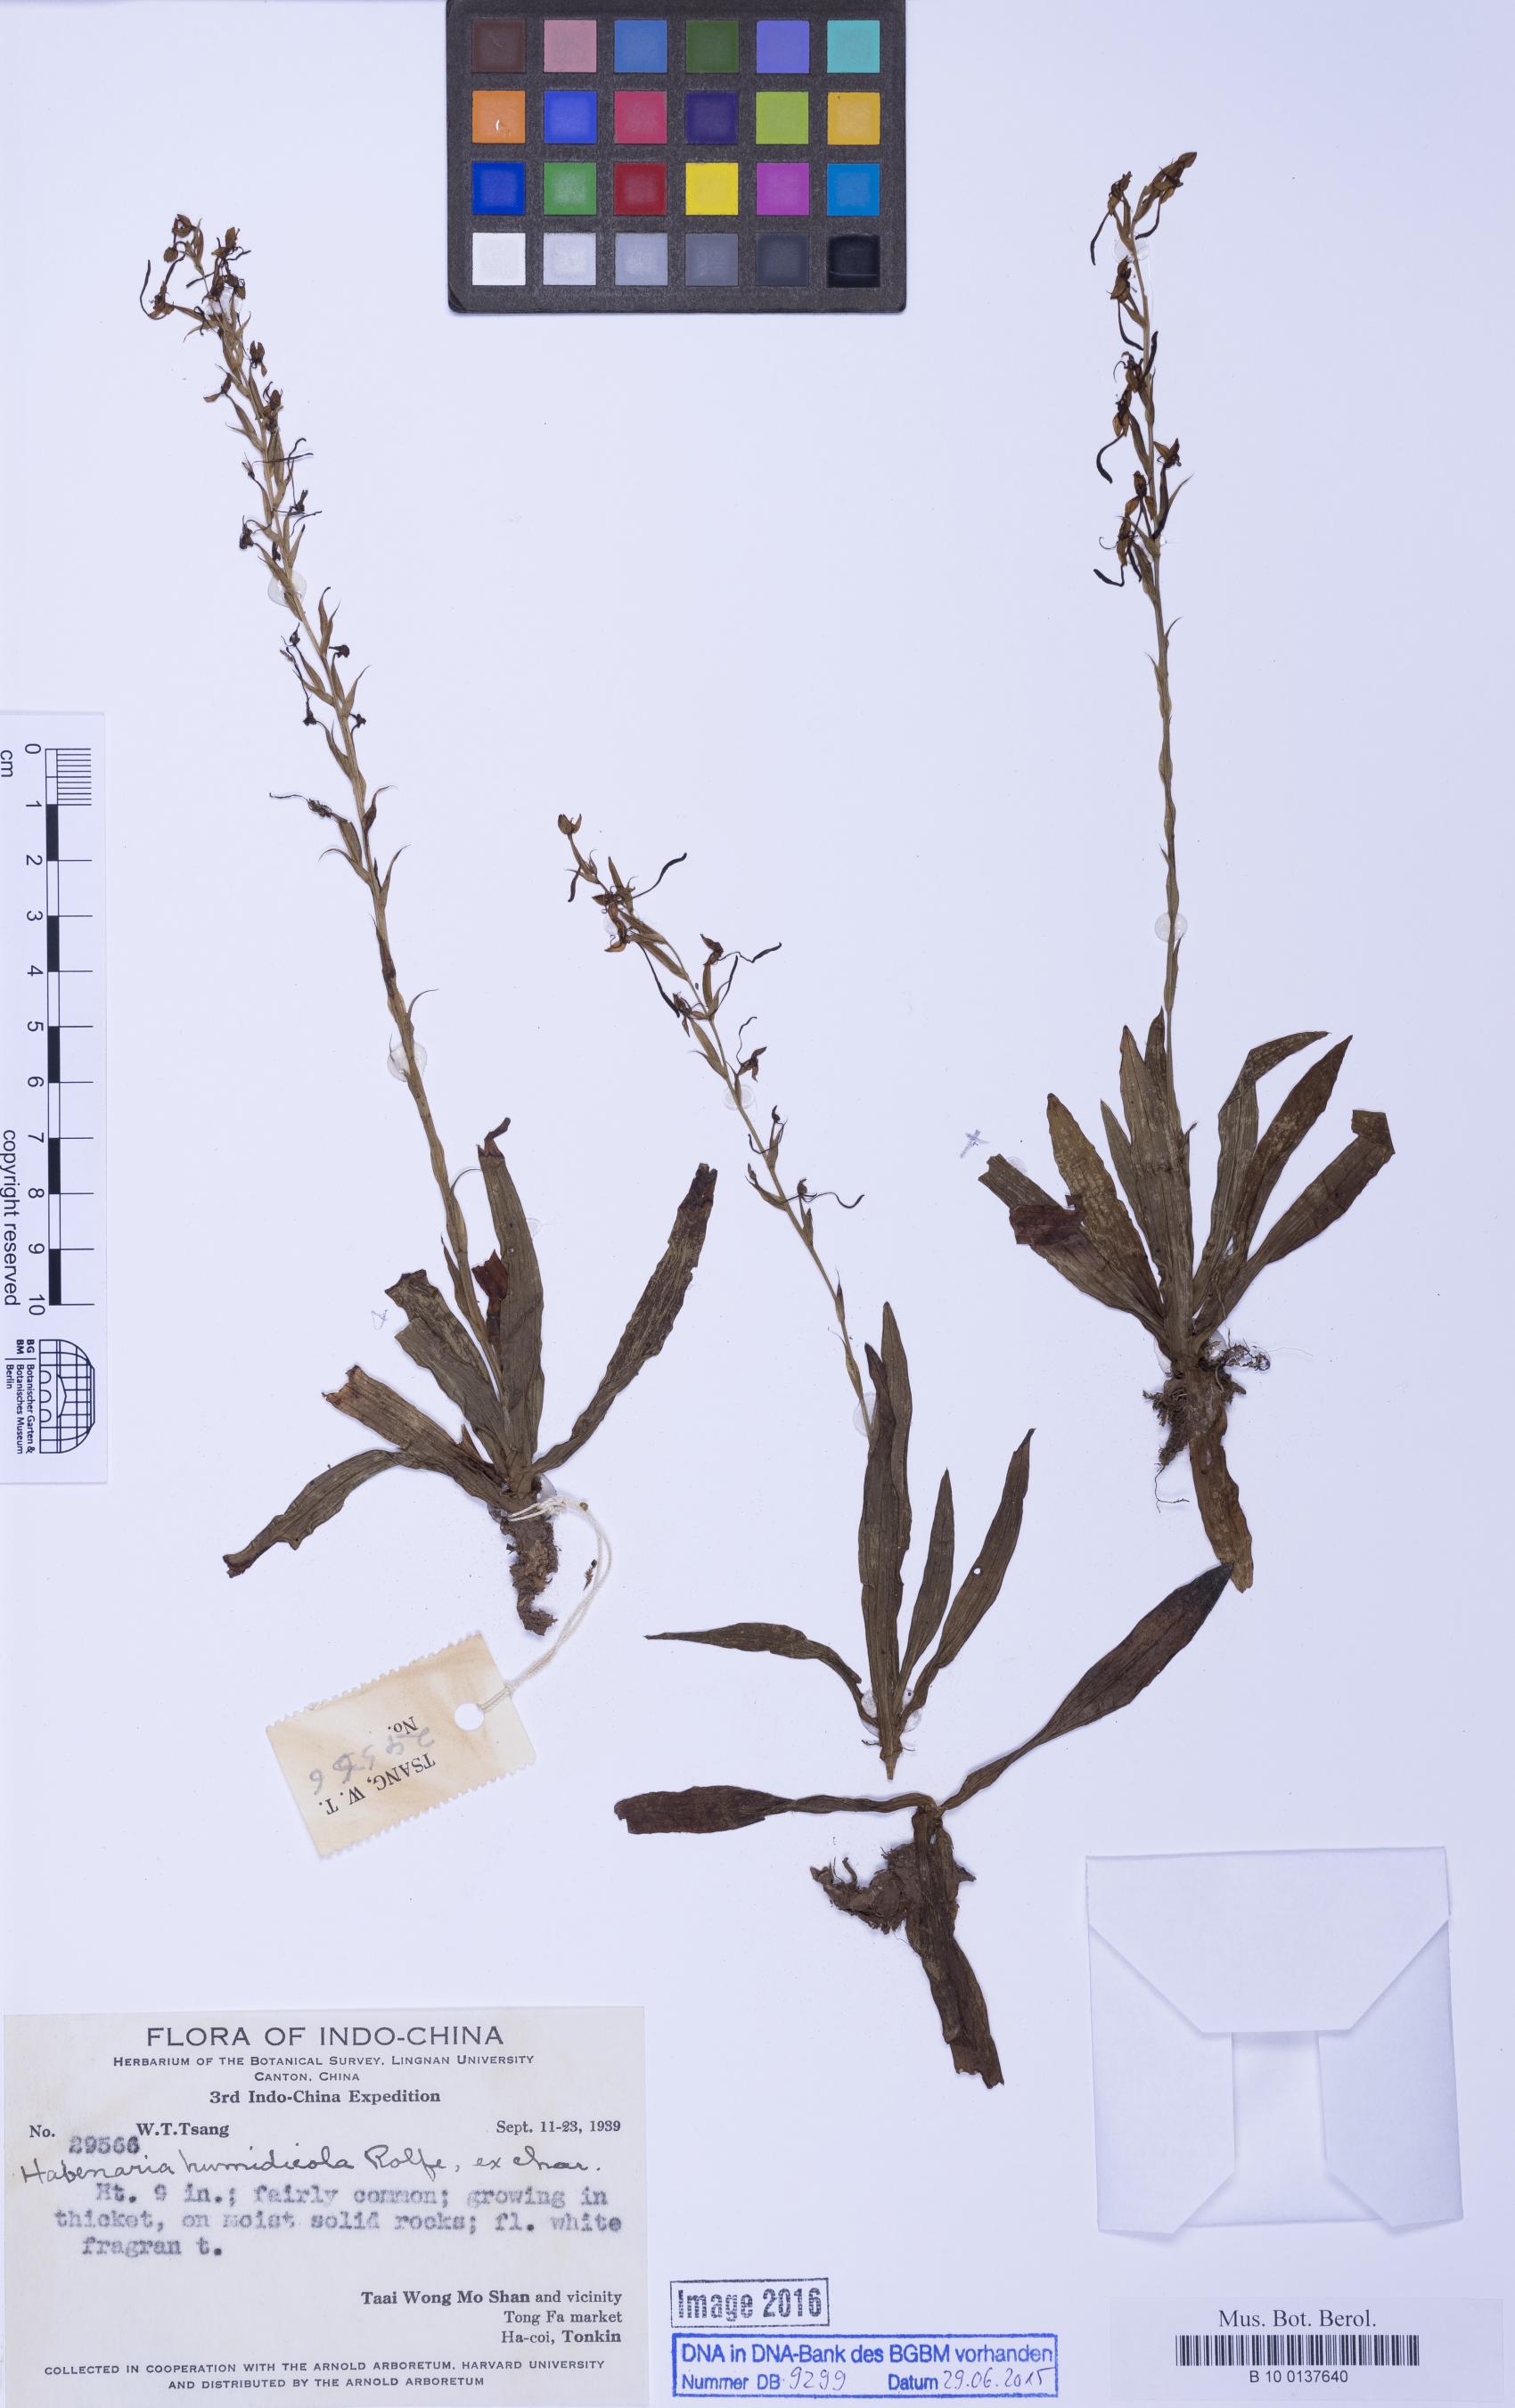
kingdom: Plantae
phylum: Tracheophyta
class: Liliopsida
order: Asparagales
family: Orchidaceae
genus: Habenaria
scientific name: Habenaria humidicola
